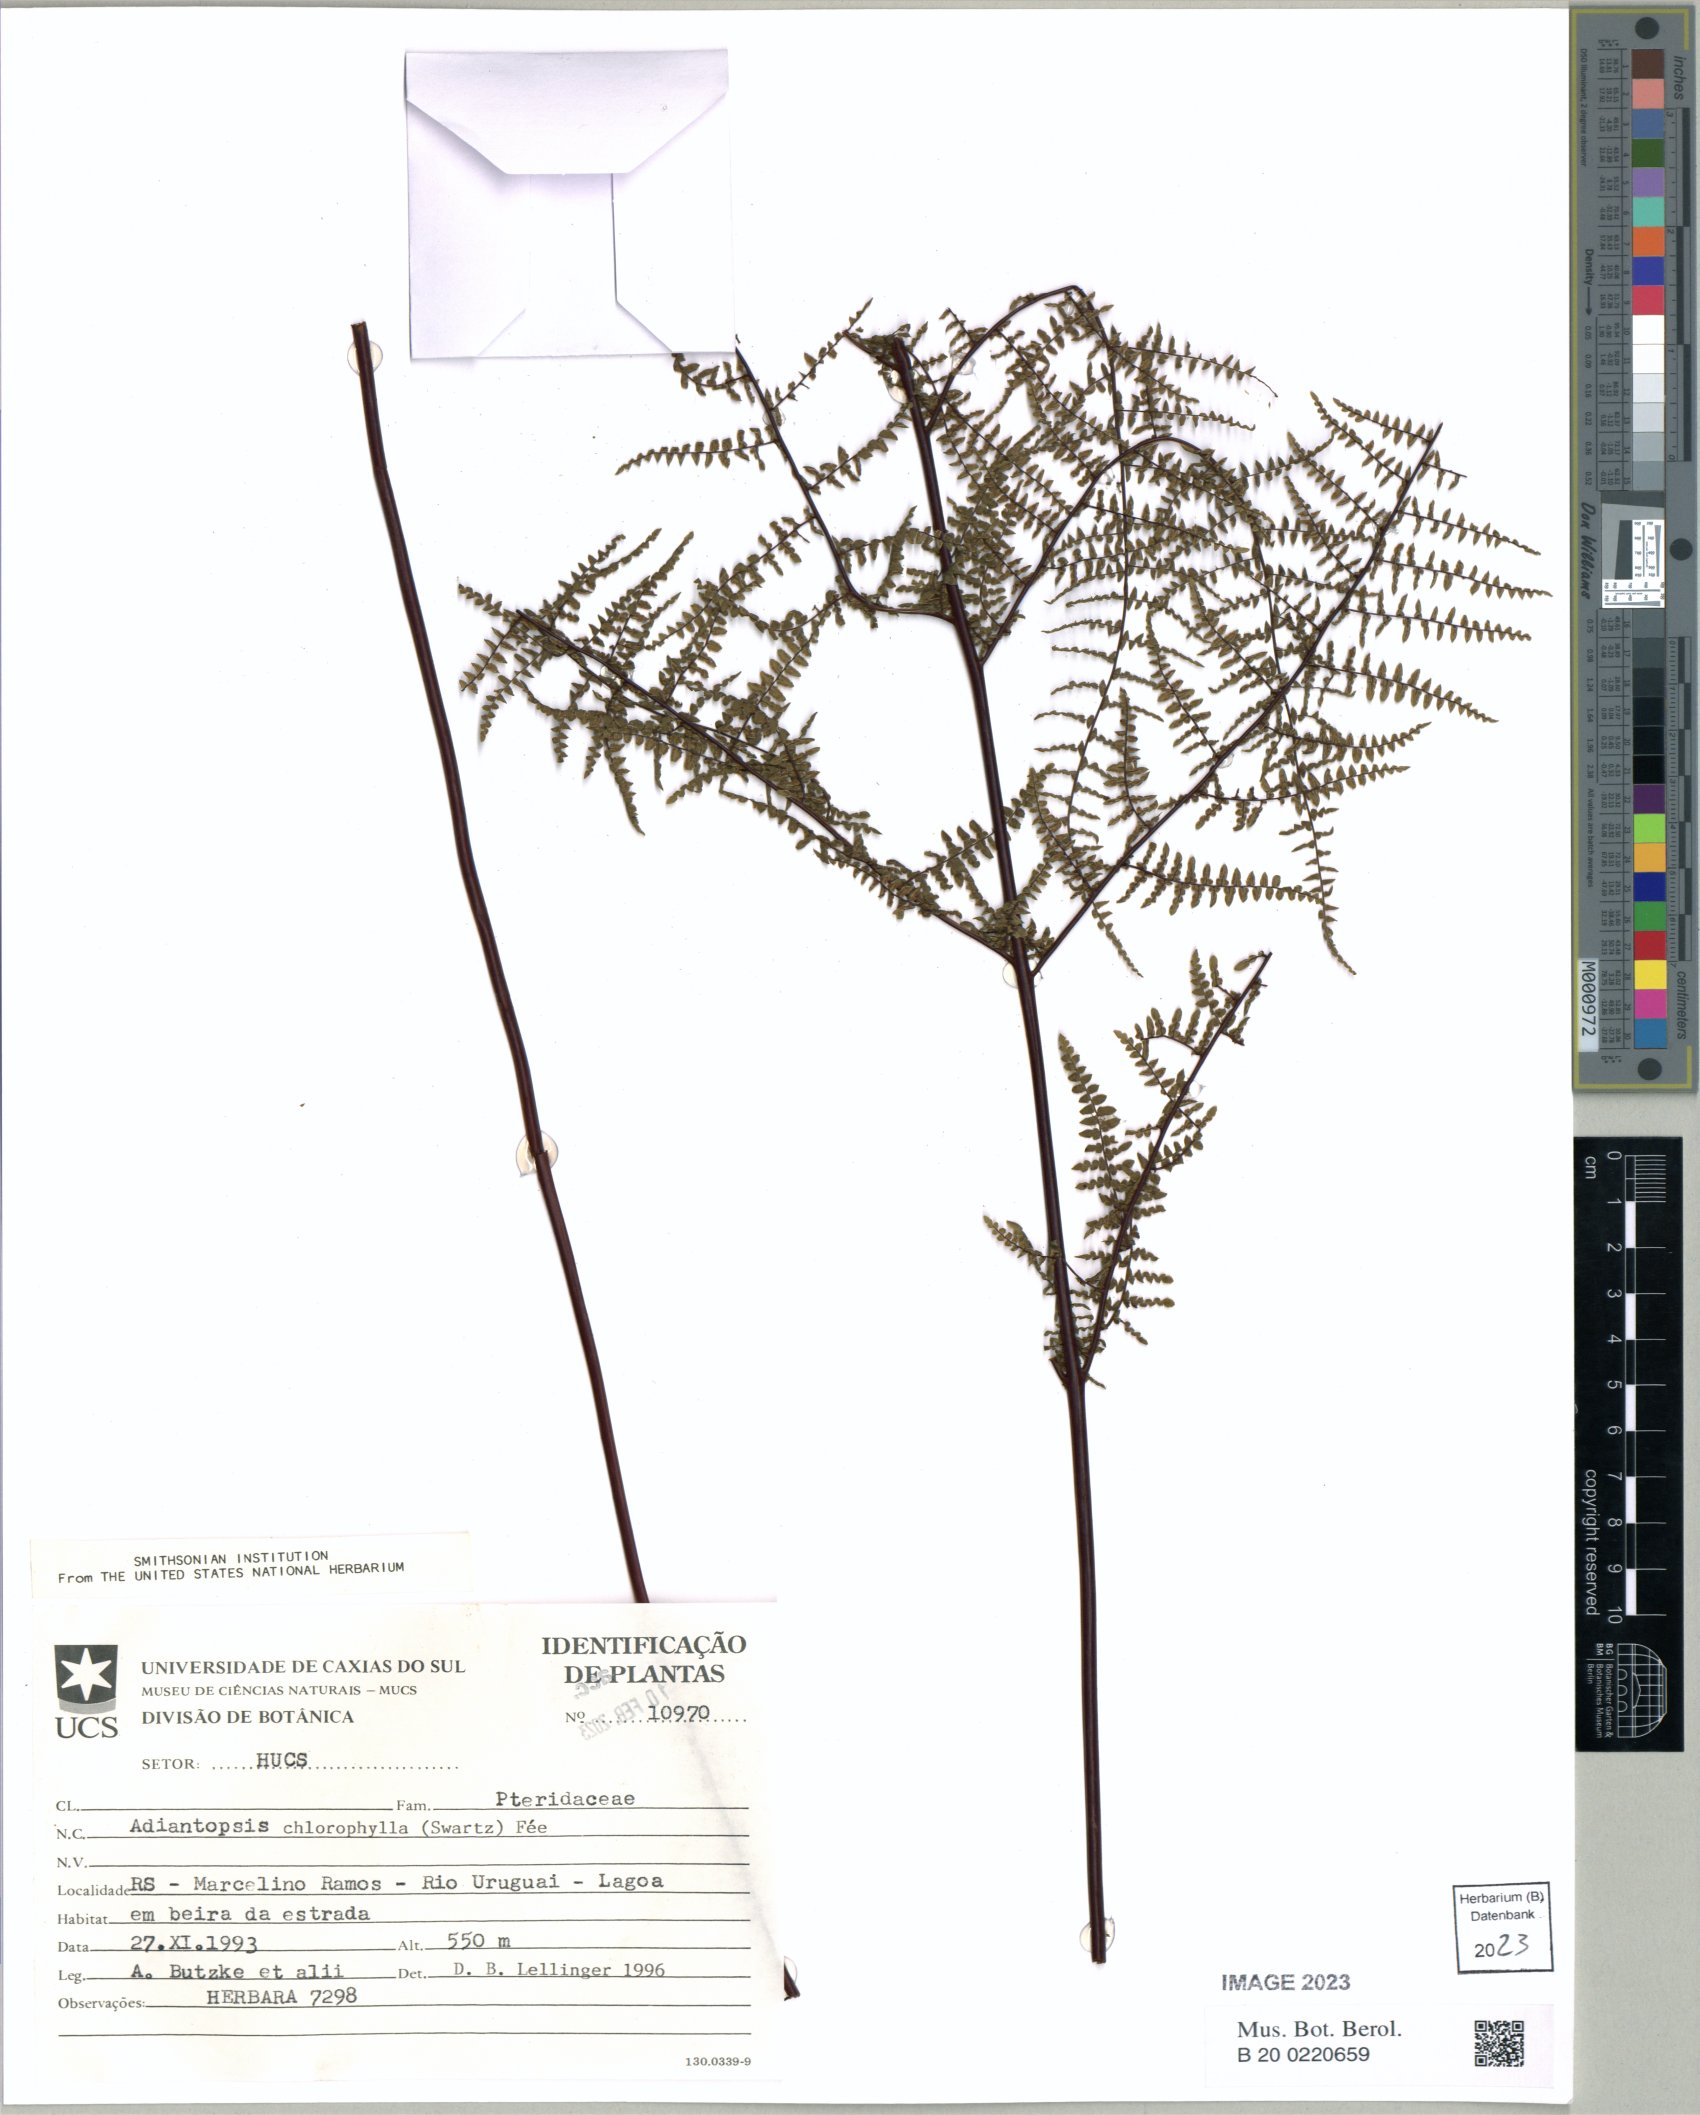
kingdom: Plantae
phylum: Tracheophyta
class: Polypodiopsida
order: Polypodiales
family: Pteridaceae
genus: Adiantopsis
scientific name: Adiantopsis chlorophylla
